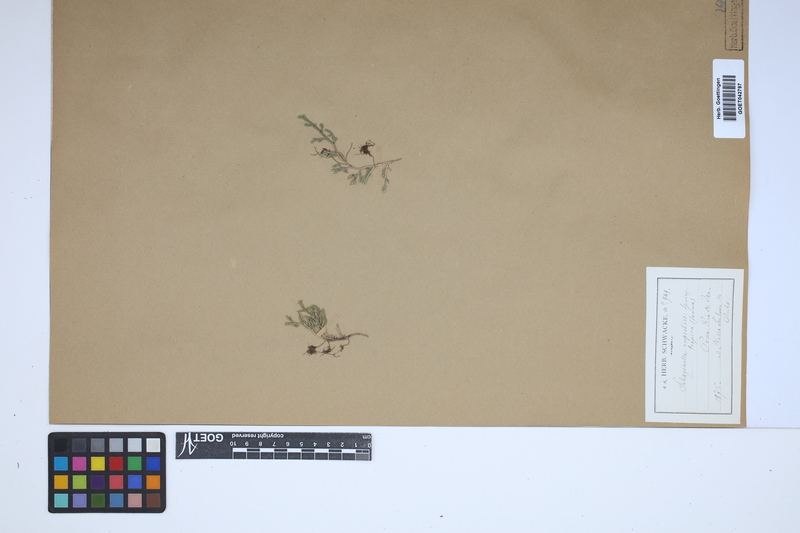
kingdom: Plantae
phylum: Tracheophyta
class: Lycopodiopsida
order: Selaginellales
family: Selaginellaceae
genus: Selaginella
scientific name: Selaginella rupestris
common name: Dwarf spikemoss
